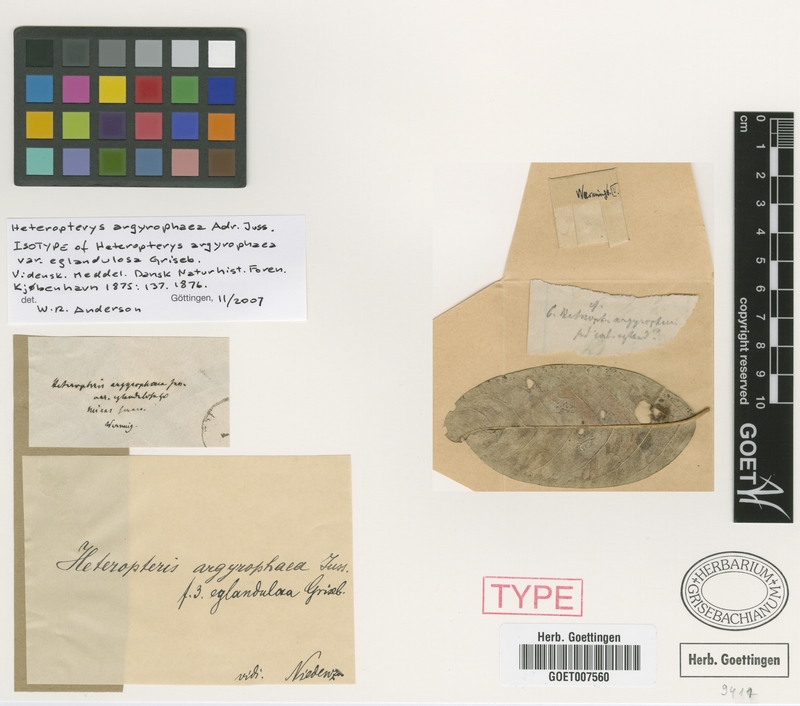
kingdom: Plantae
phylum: Tracheophyta
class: Magnoliopsida
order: Malpighiales
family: Malpighiaceae
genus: Heteropterys
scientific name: Heteropterys argyrophaea
